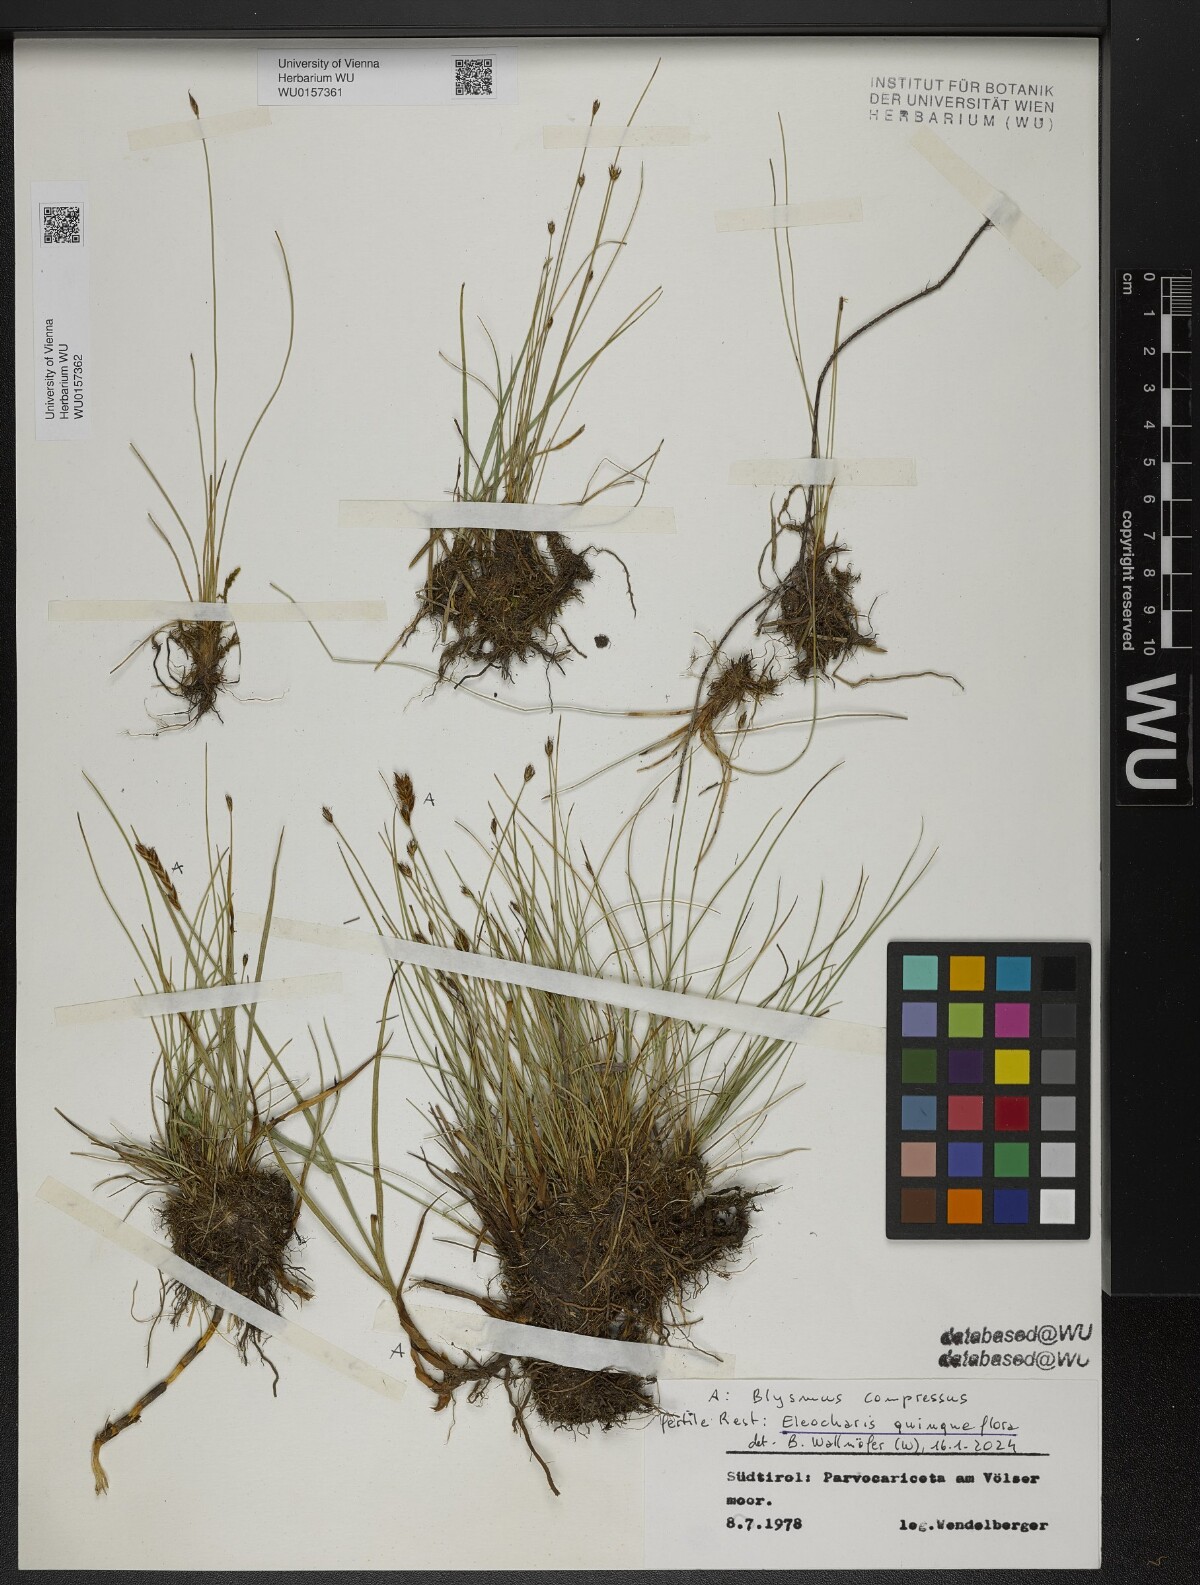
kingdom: Plantae
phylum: Tracheophyta
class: Liliopsida
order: Poales
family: Cyperaceae
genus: Blysmus
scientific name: Blysmus compressus
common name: Flat-sedge
